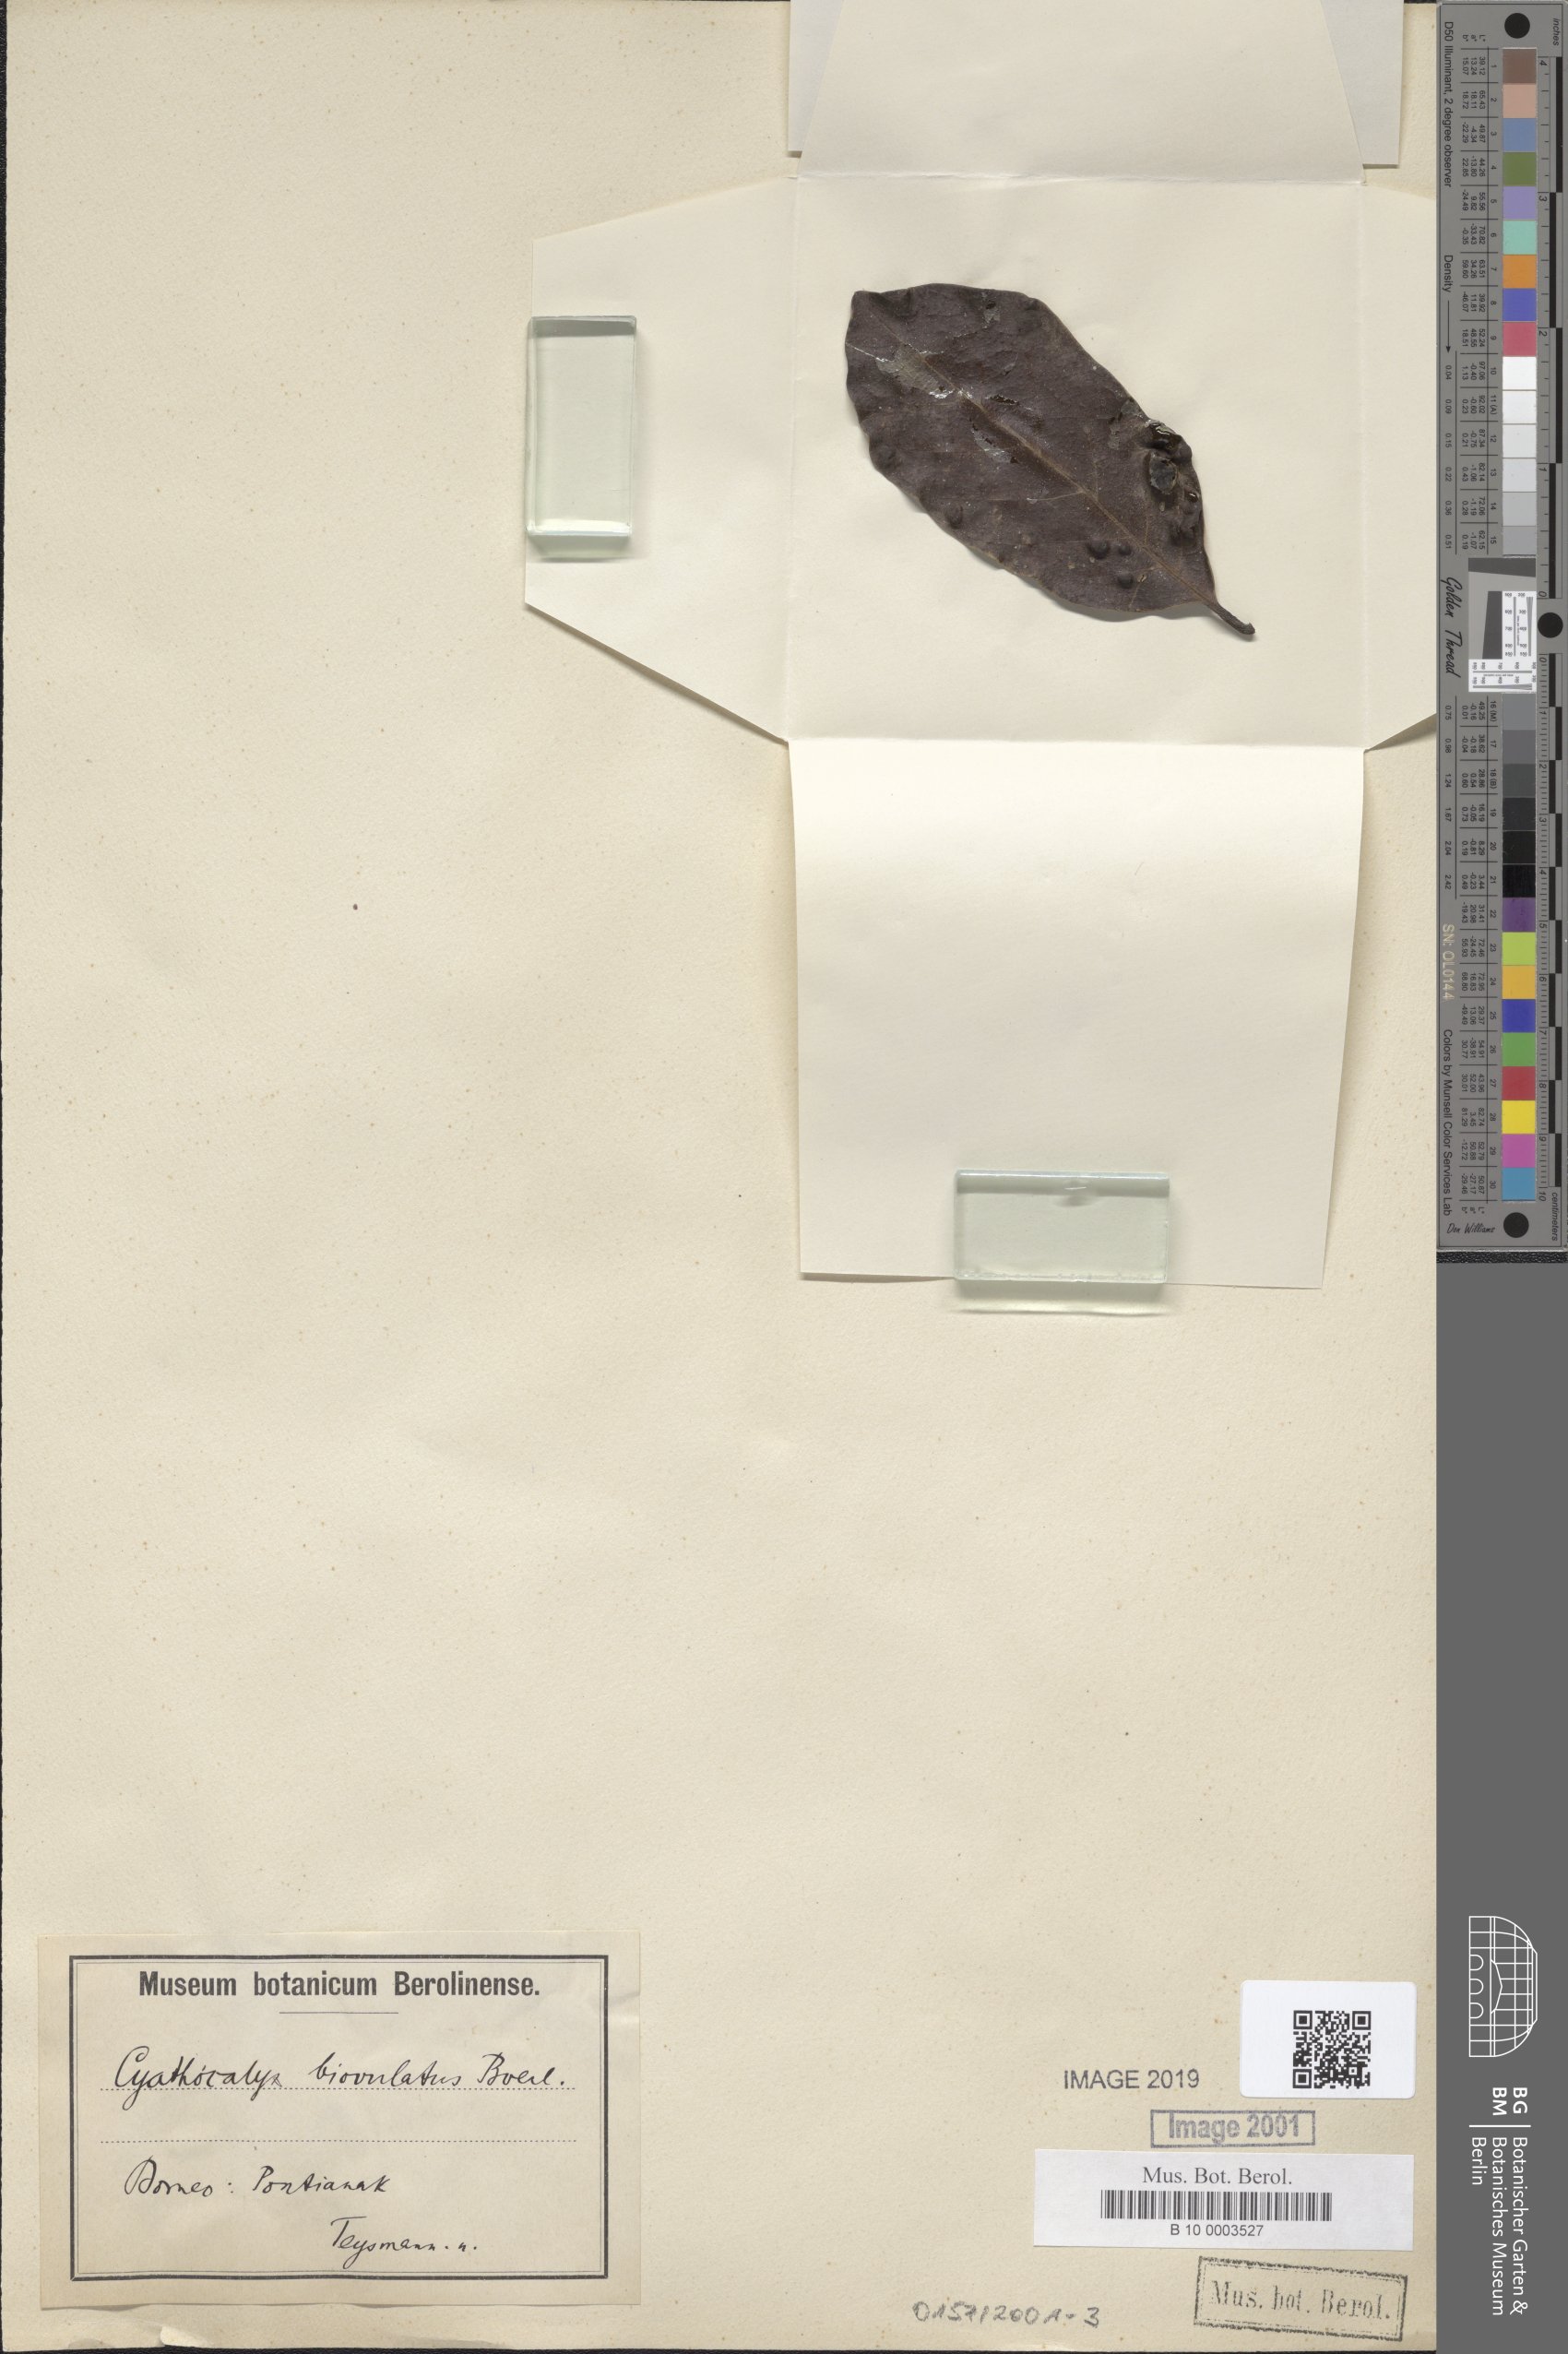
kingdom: Plantae
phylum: Tracheophyta
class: Magnoliopsida
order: Magnoliales
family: Annonaceae
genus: Drepananthus
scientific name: Drepananthus biovulatus
